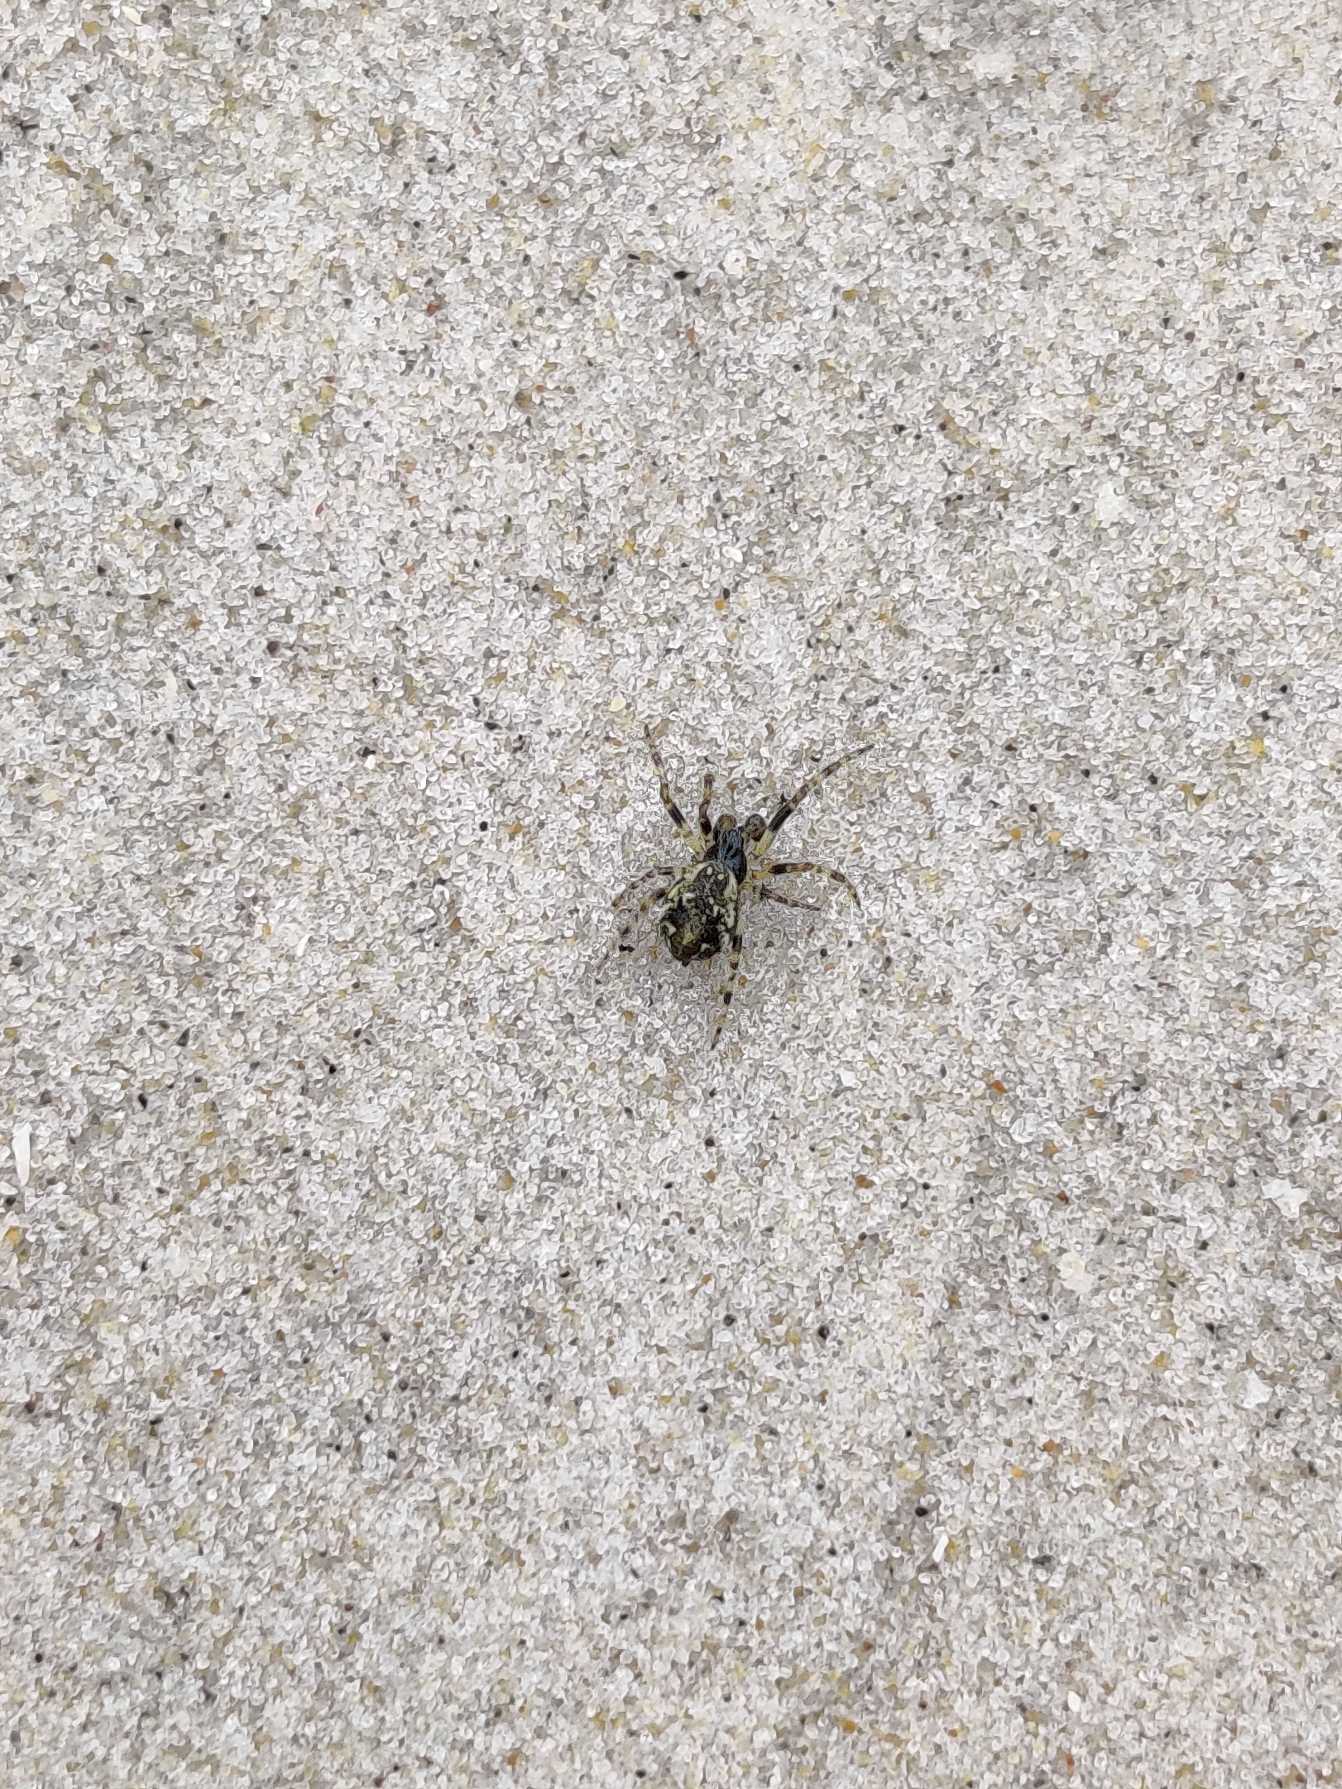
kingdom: Animalia
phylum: Arthropoda
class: Arachnida
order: Araneae
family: Araneidae
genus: Cyclosa
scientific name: Cyclosa conica
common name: Keglerumpe
